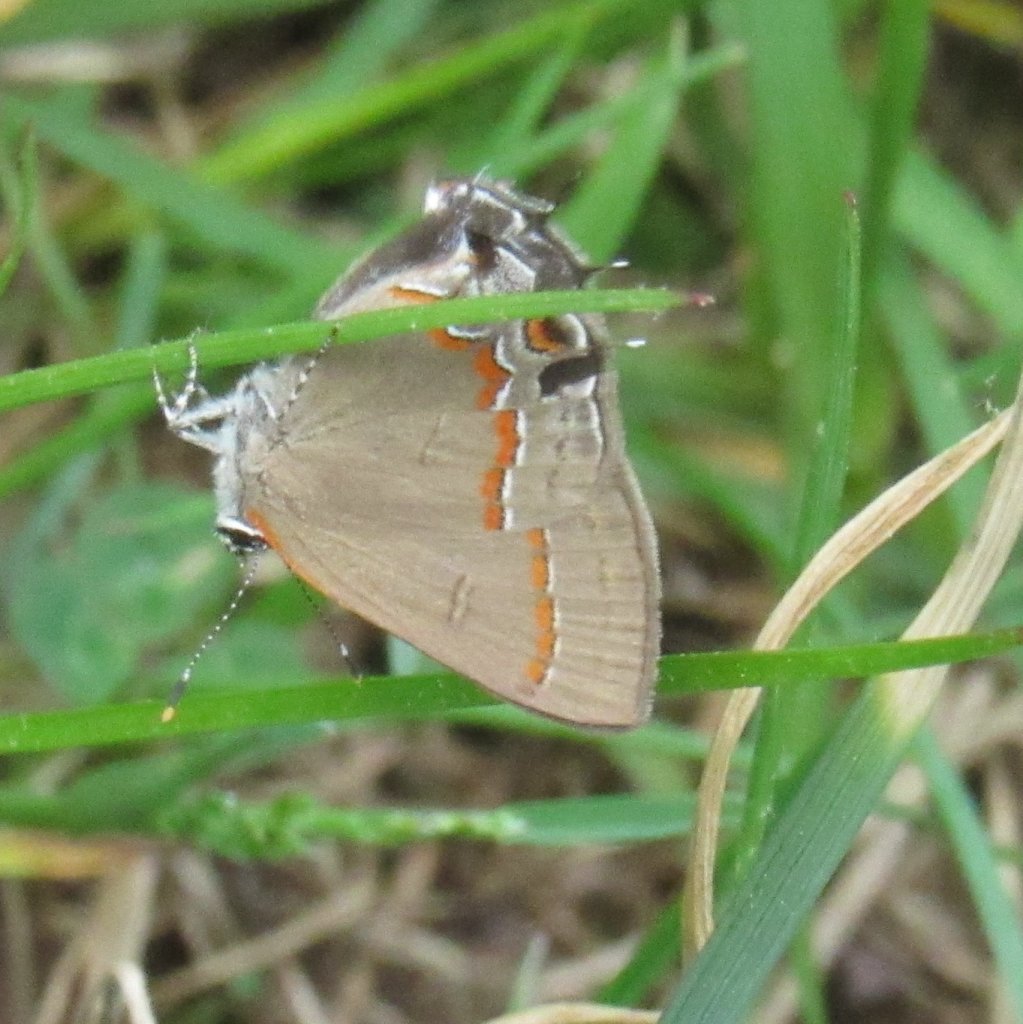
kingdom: Animalia
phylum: Arthropoda
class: Insecta
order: Lepidoptera
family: Lycaenidae
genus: Calycopis
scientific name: Calycopis cecrops
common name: Red-banded Hairstreak
